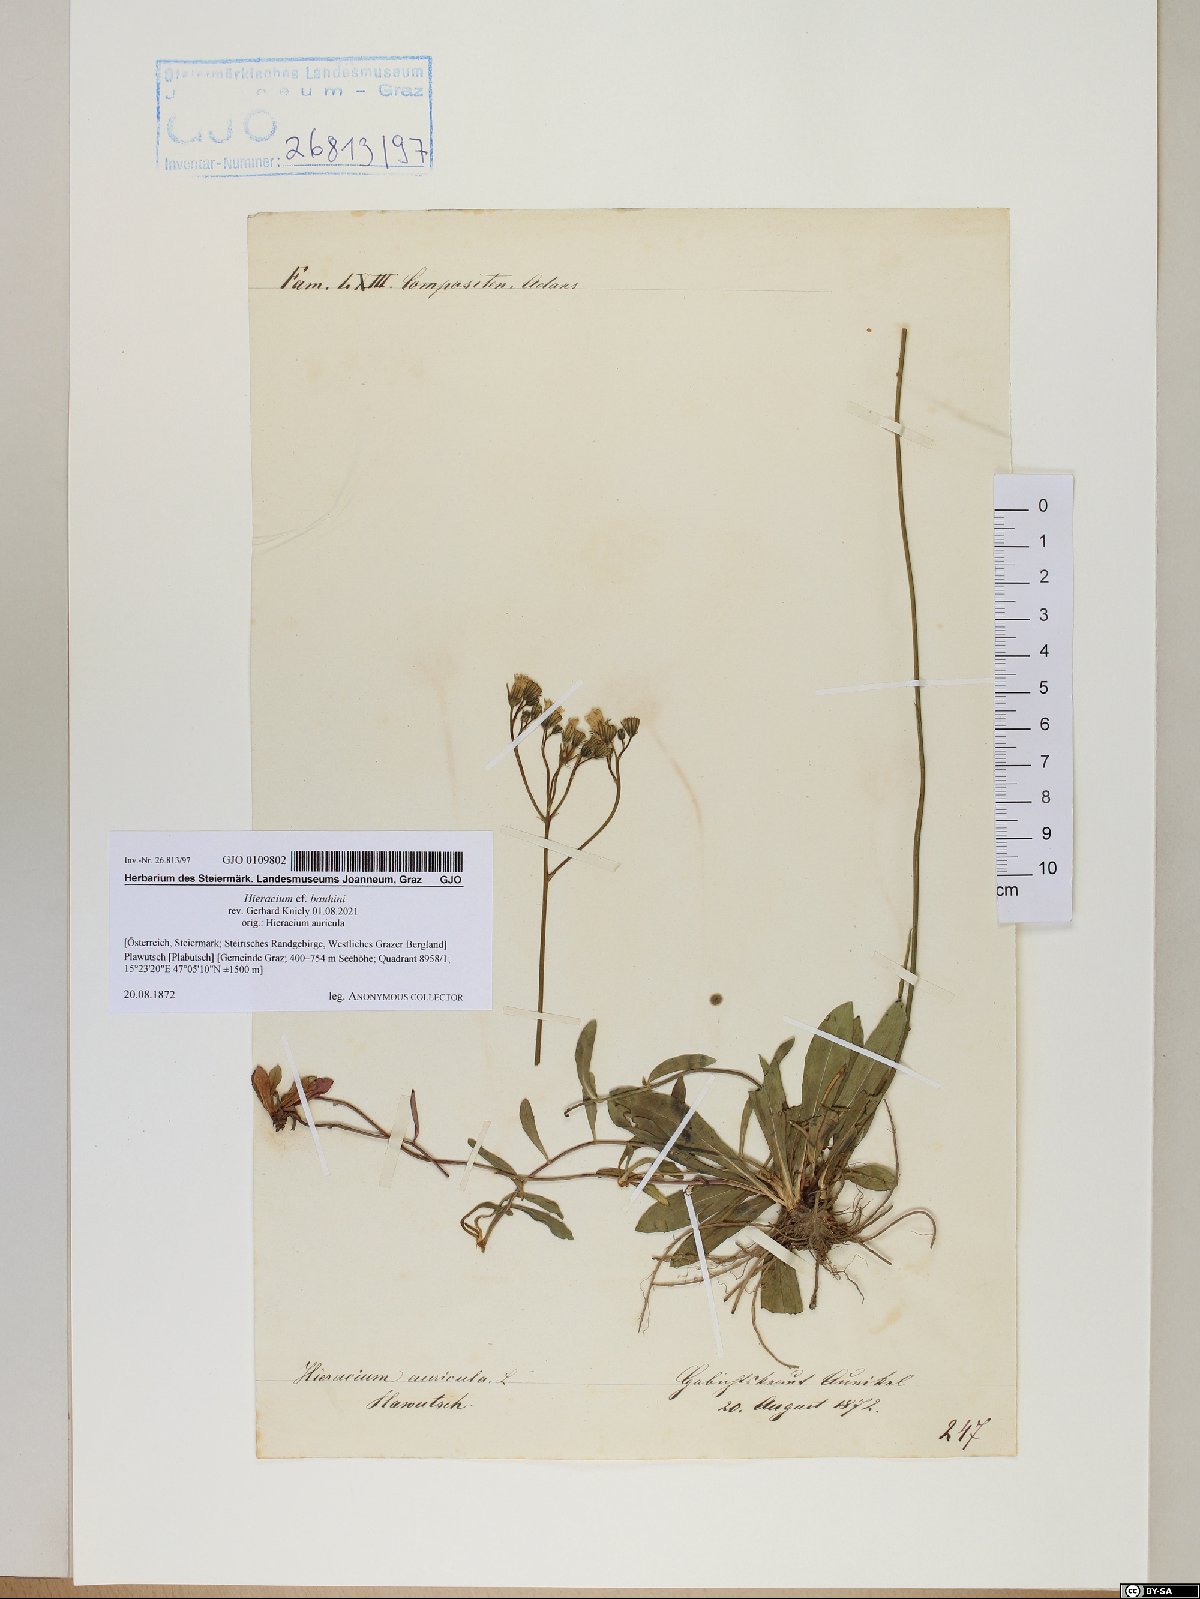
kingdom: Plantae
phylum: Tracheophyta
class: Magnoliopsida
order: Asterales
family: Asteraceae
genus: Pilosella
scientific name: Pilosella bauhini
